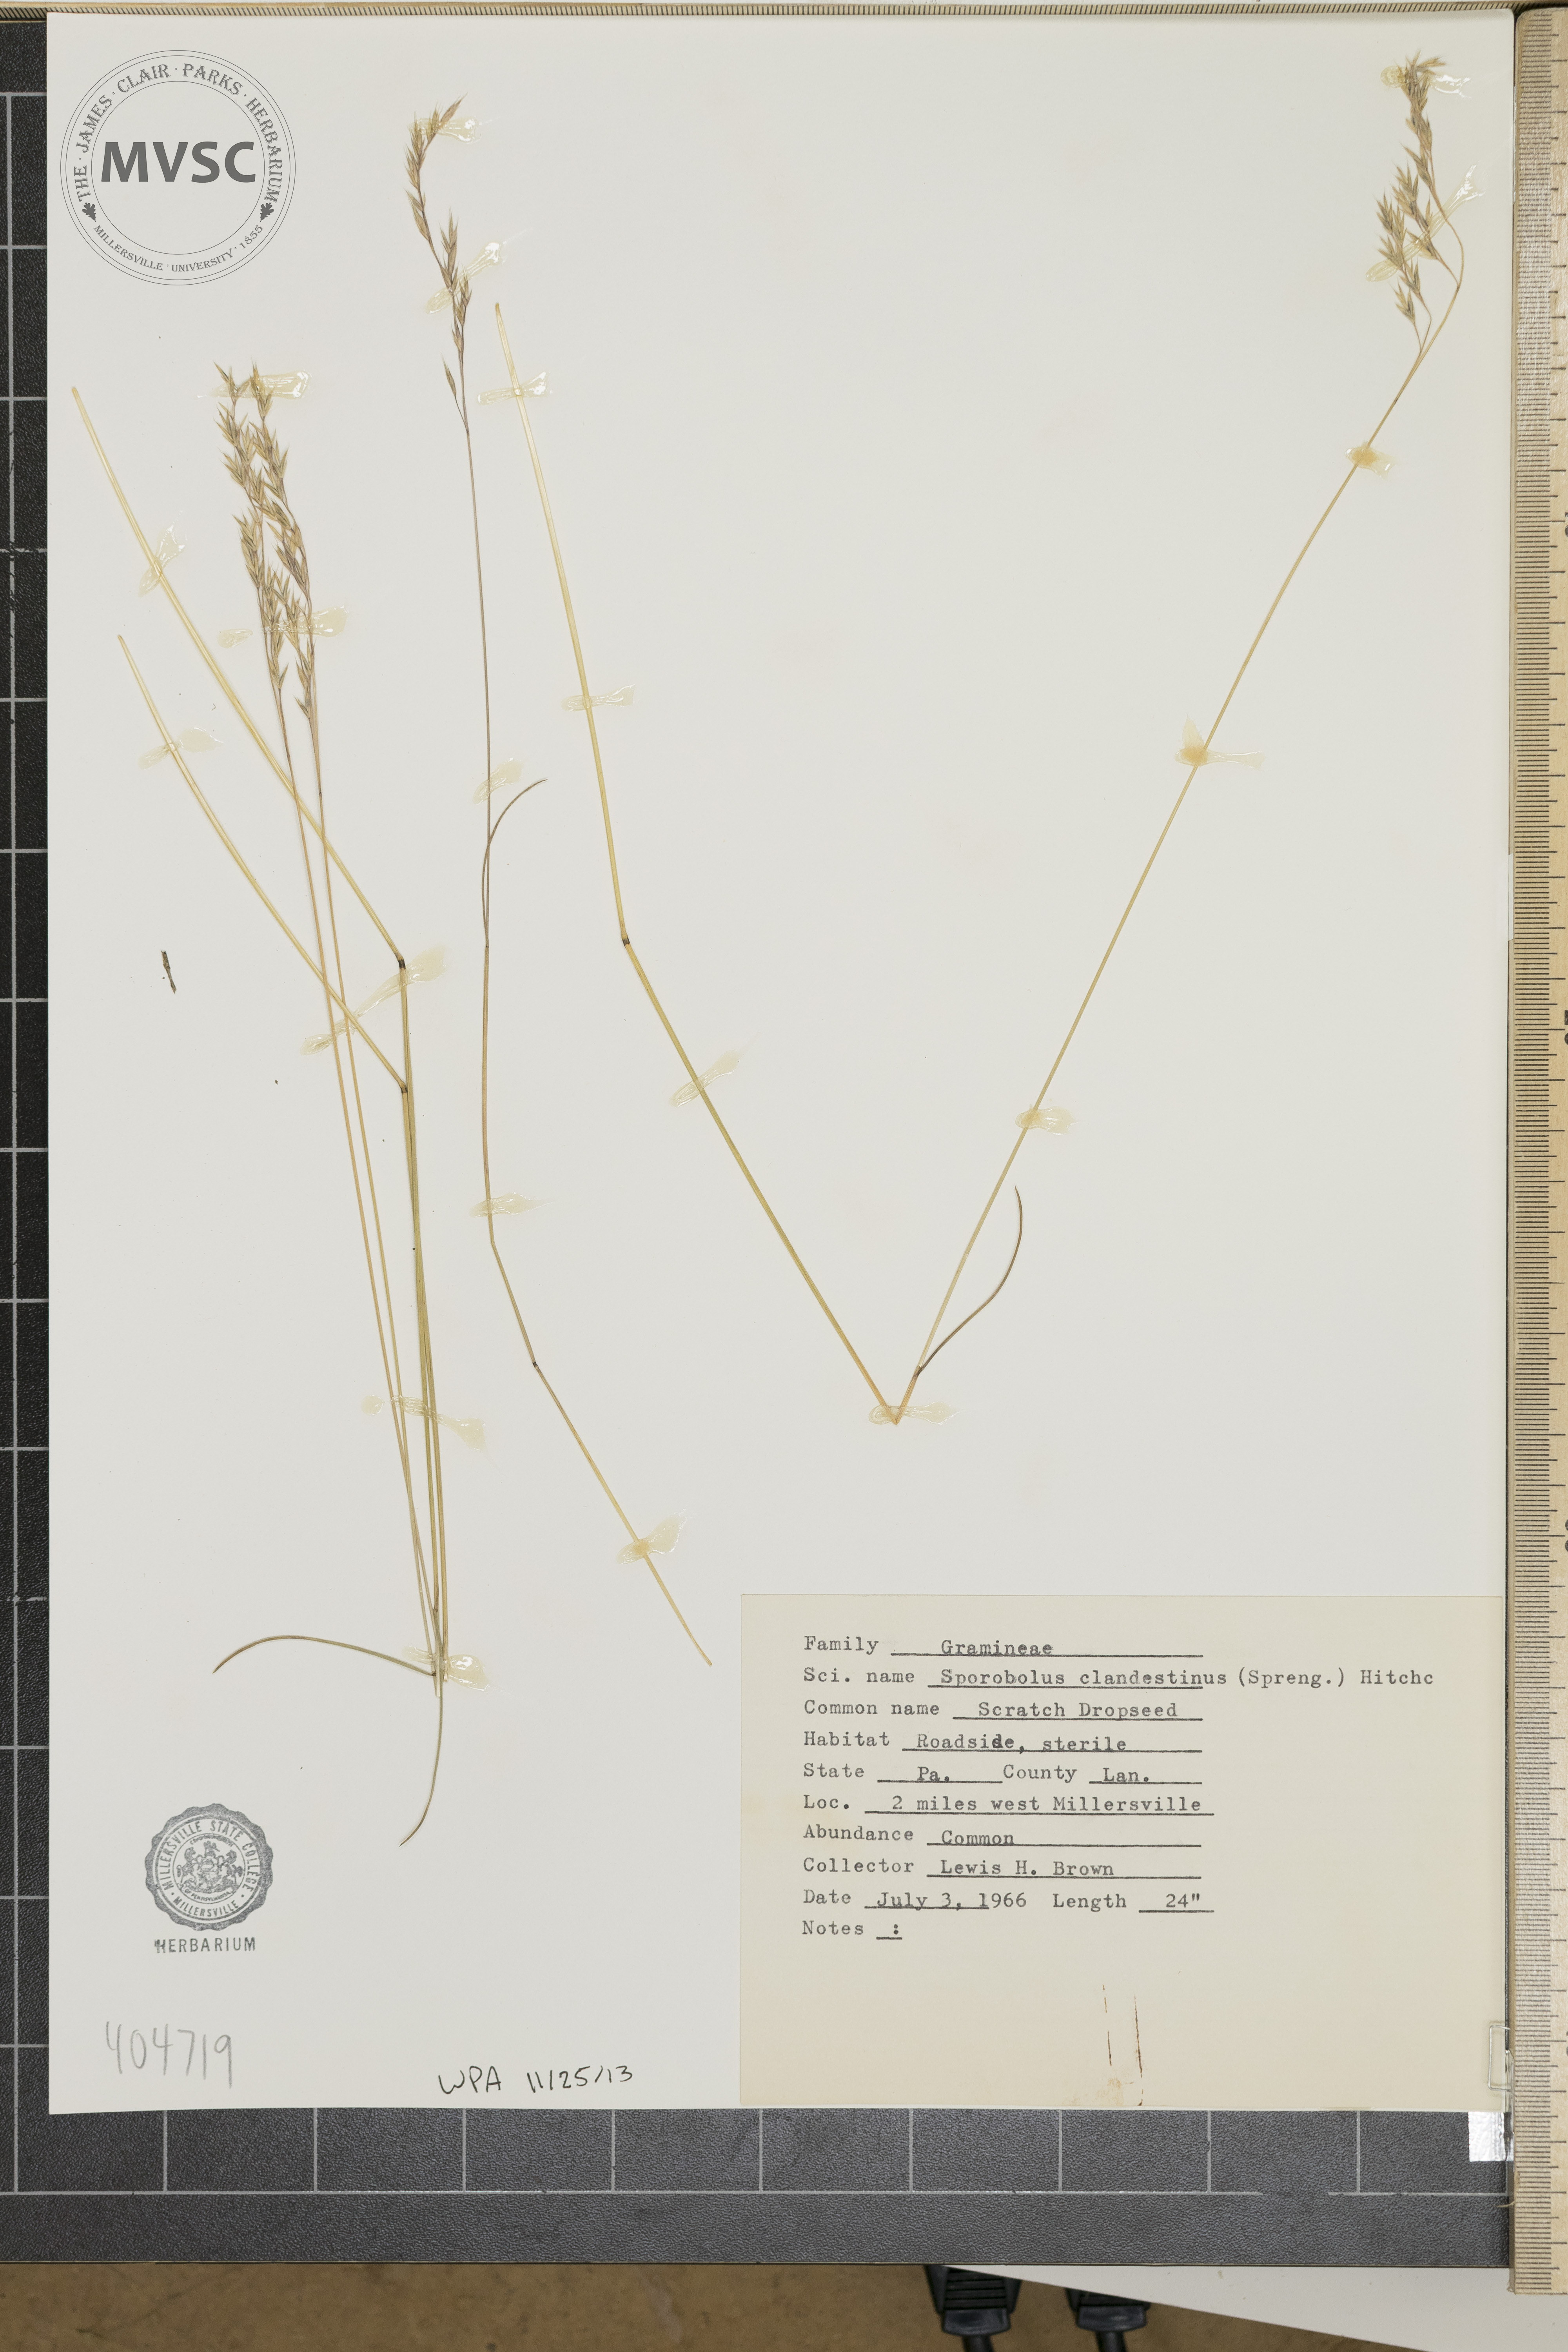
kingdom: Plantae
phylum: Tracheophyta
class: Liliopsida
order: Poales
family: Poaceae
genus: Lolium
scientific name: Lolium arundinaceum
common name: Reed fescue
